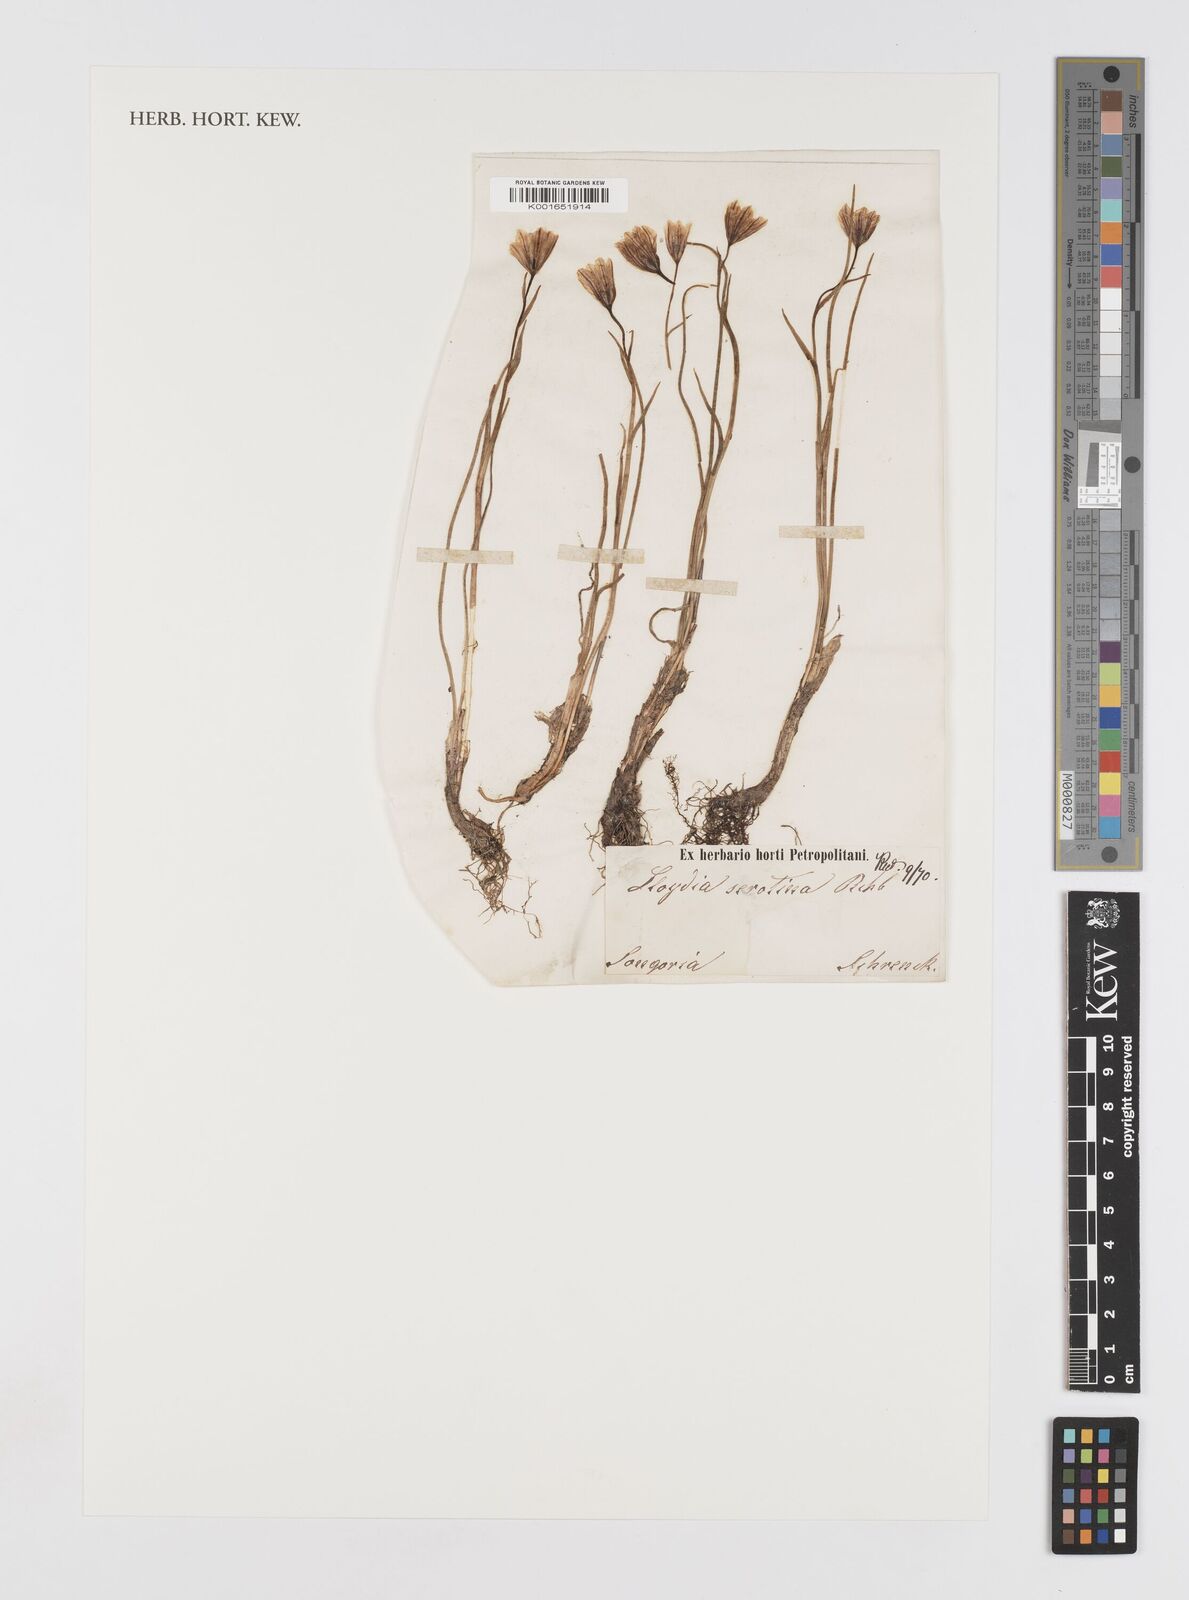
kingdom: Plantae
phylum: Tracheophyta
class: Liliopsida
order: Liliales
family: Liliaceae
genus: Gagea
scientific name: Gagea serotina
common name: Snowdon lily
